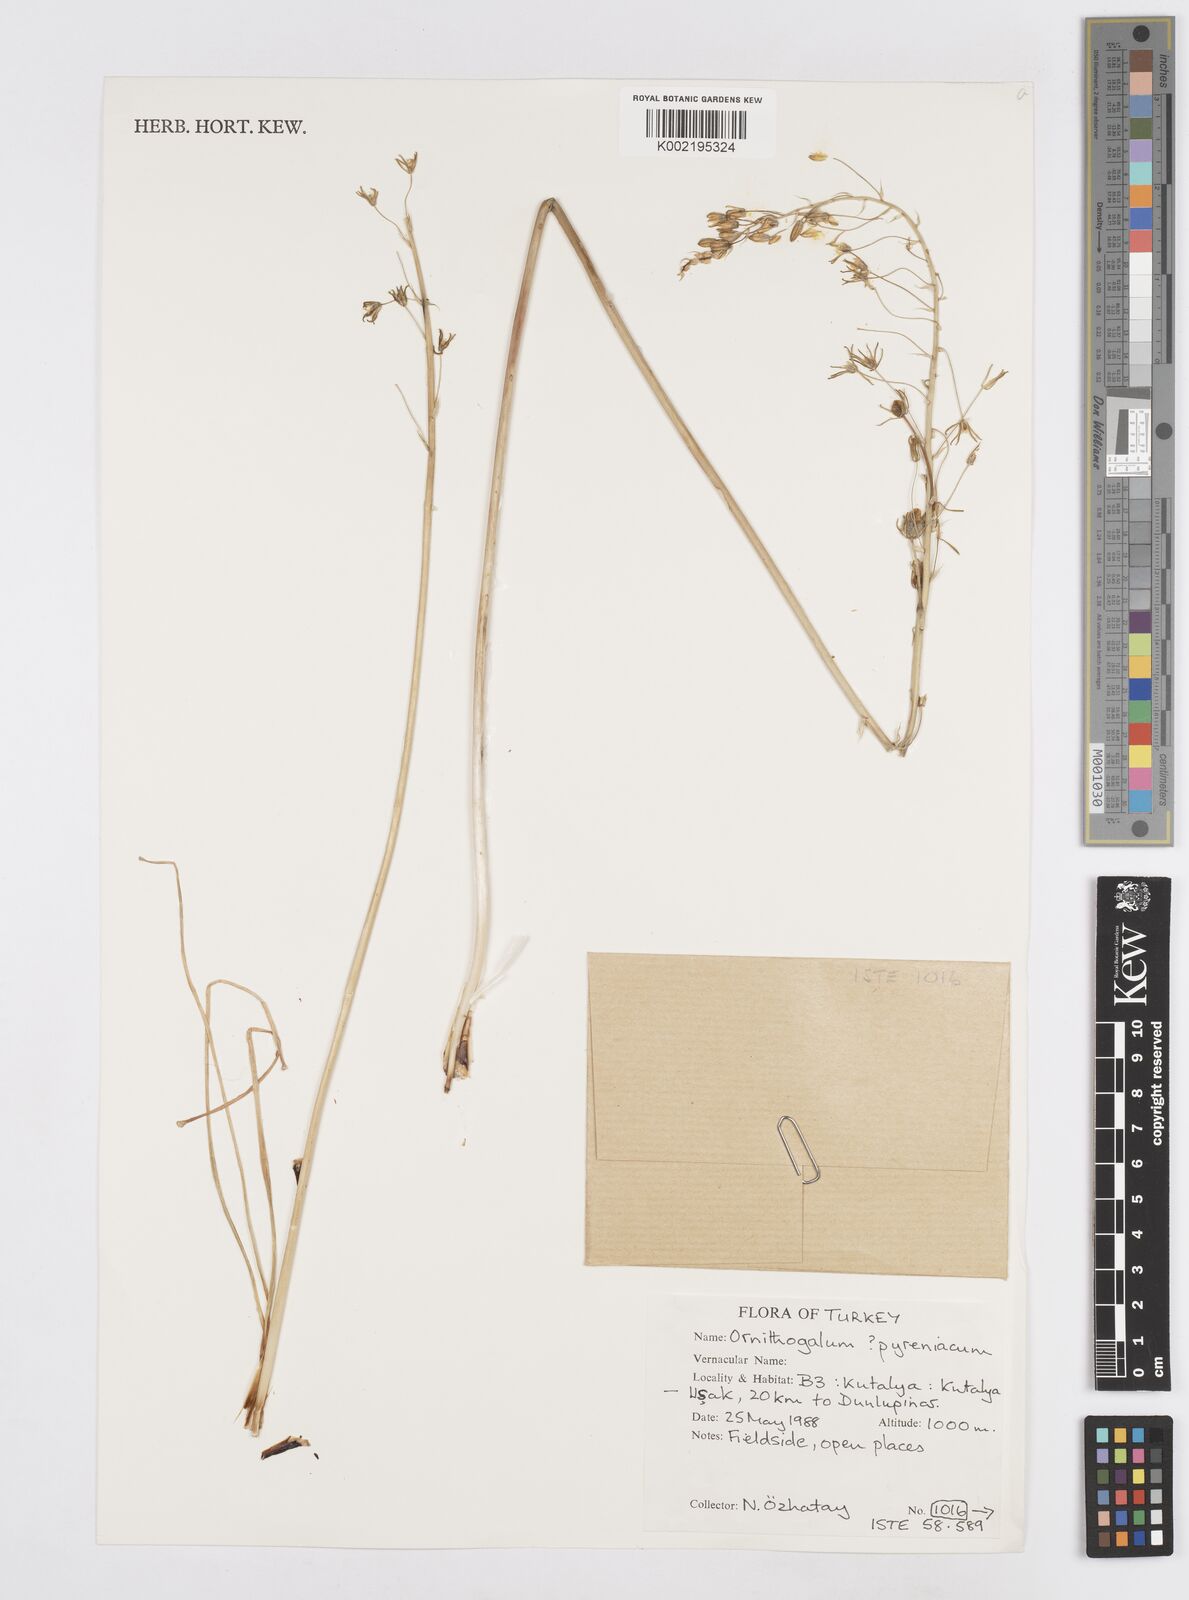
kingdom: Plantae
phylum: Tracheophyta
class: Liliopsida
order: Asparagales
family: Asparagaceae
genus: Ornithogalum
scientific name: Ornithogalum pyrenaicum
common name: Spiked star-of-bethlehem
